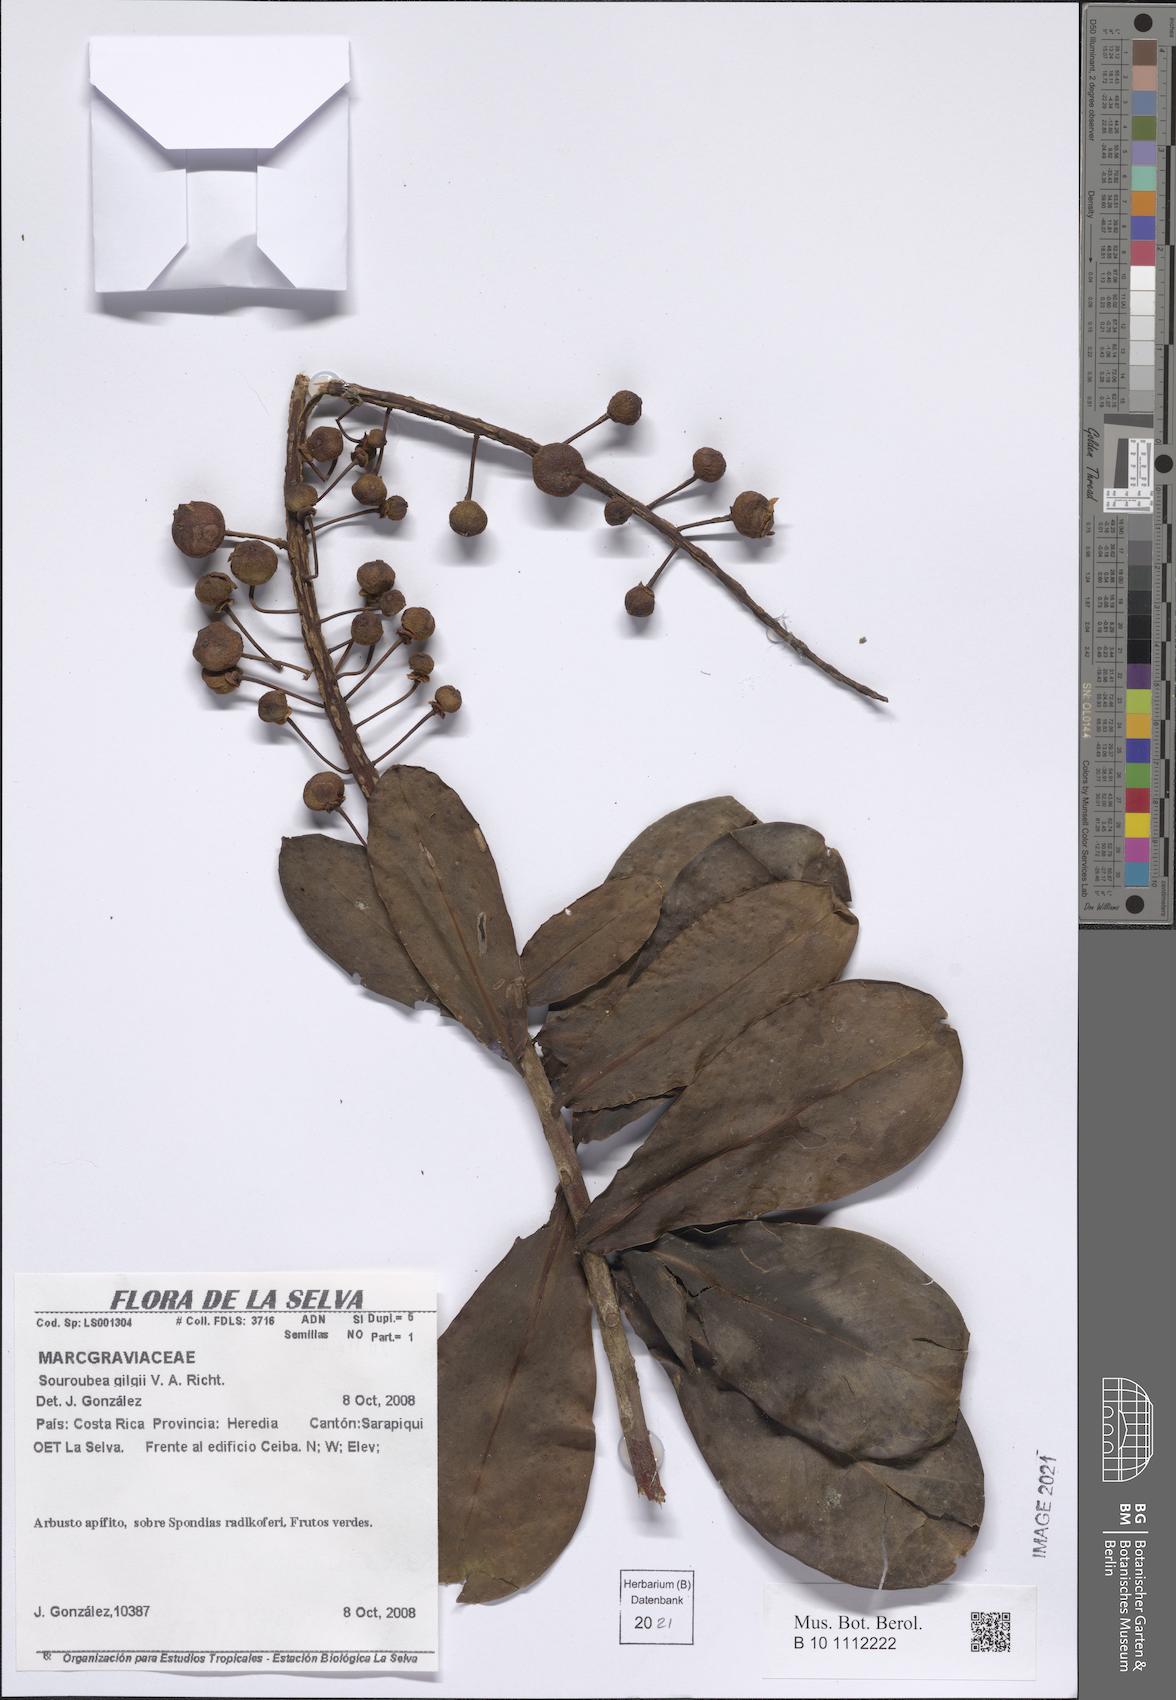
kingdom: Plantae
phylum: Tracheophyta
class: Magnoliopsida
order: Ericales
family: Marcgraviaceae
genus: Souroubea
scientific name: Souroubea gilgii
